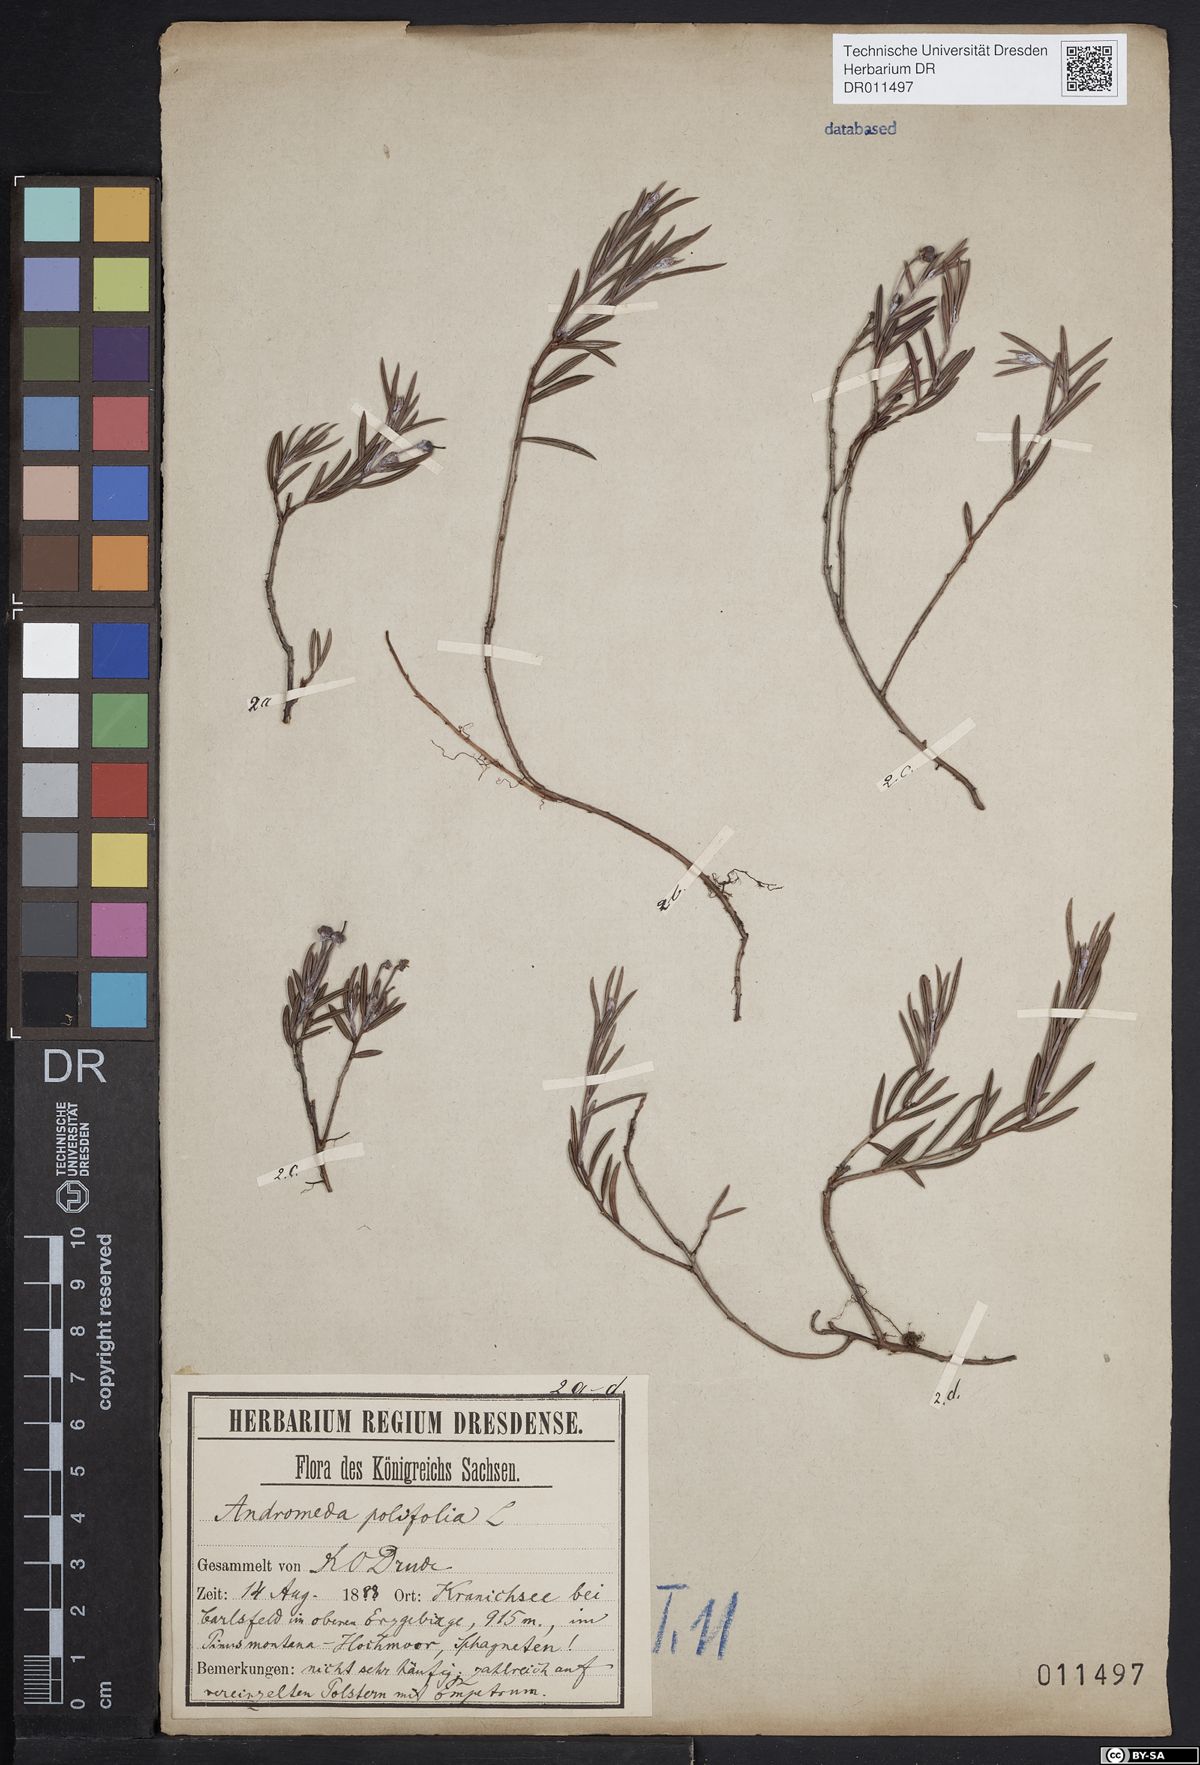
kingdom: Plantae
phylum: Tracheophyta
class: Magnoliopsida
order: Ericales
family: Ericaceae
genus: Andromeda
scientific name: Andromeda polifolia
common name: Bog-rosemary
